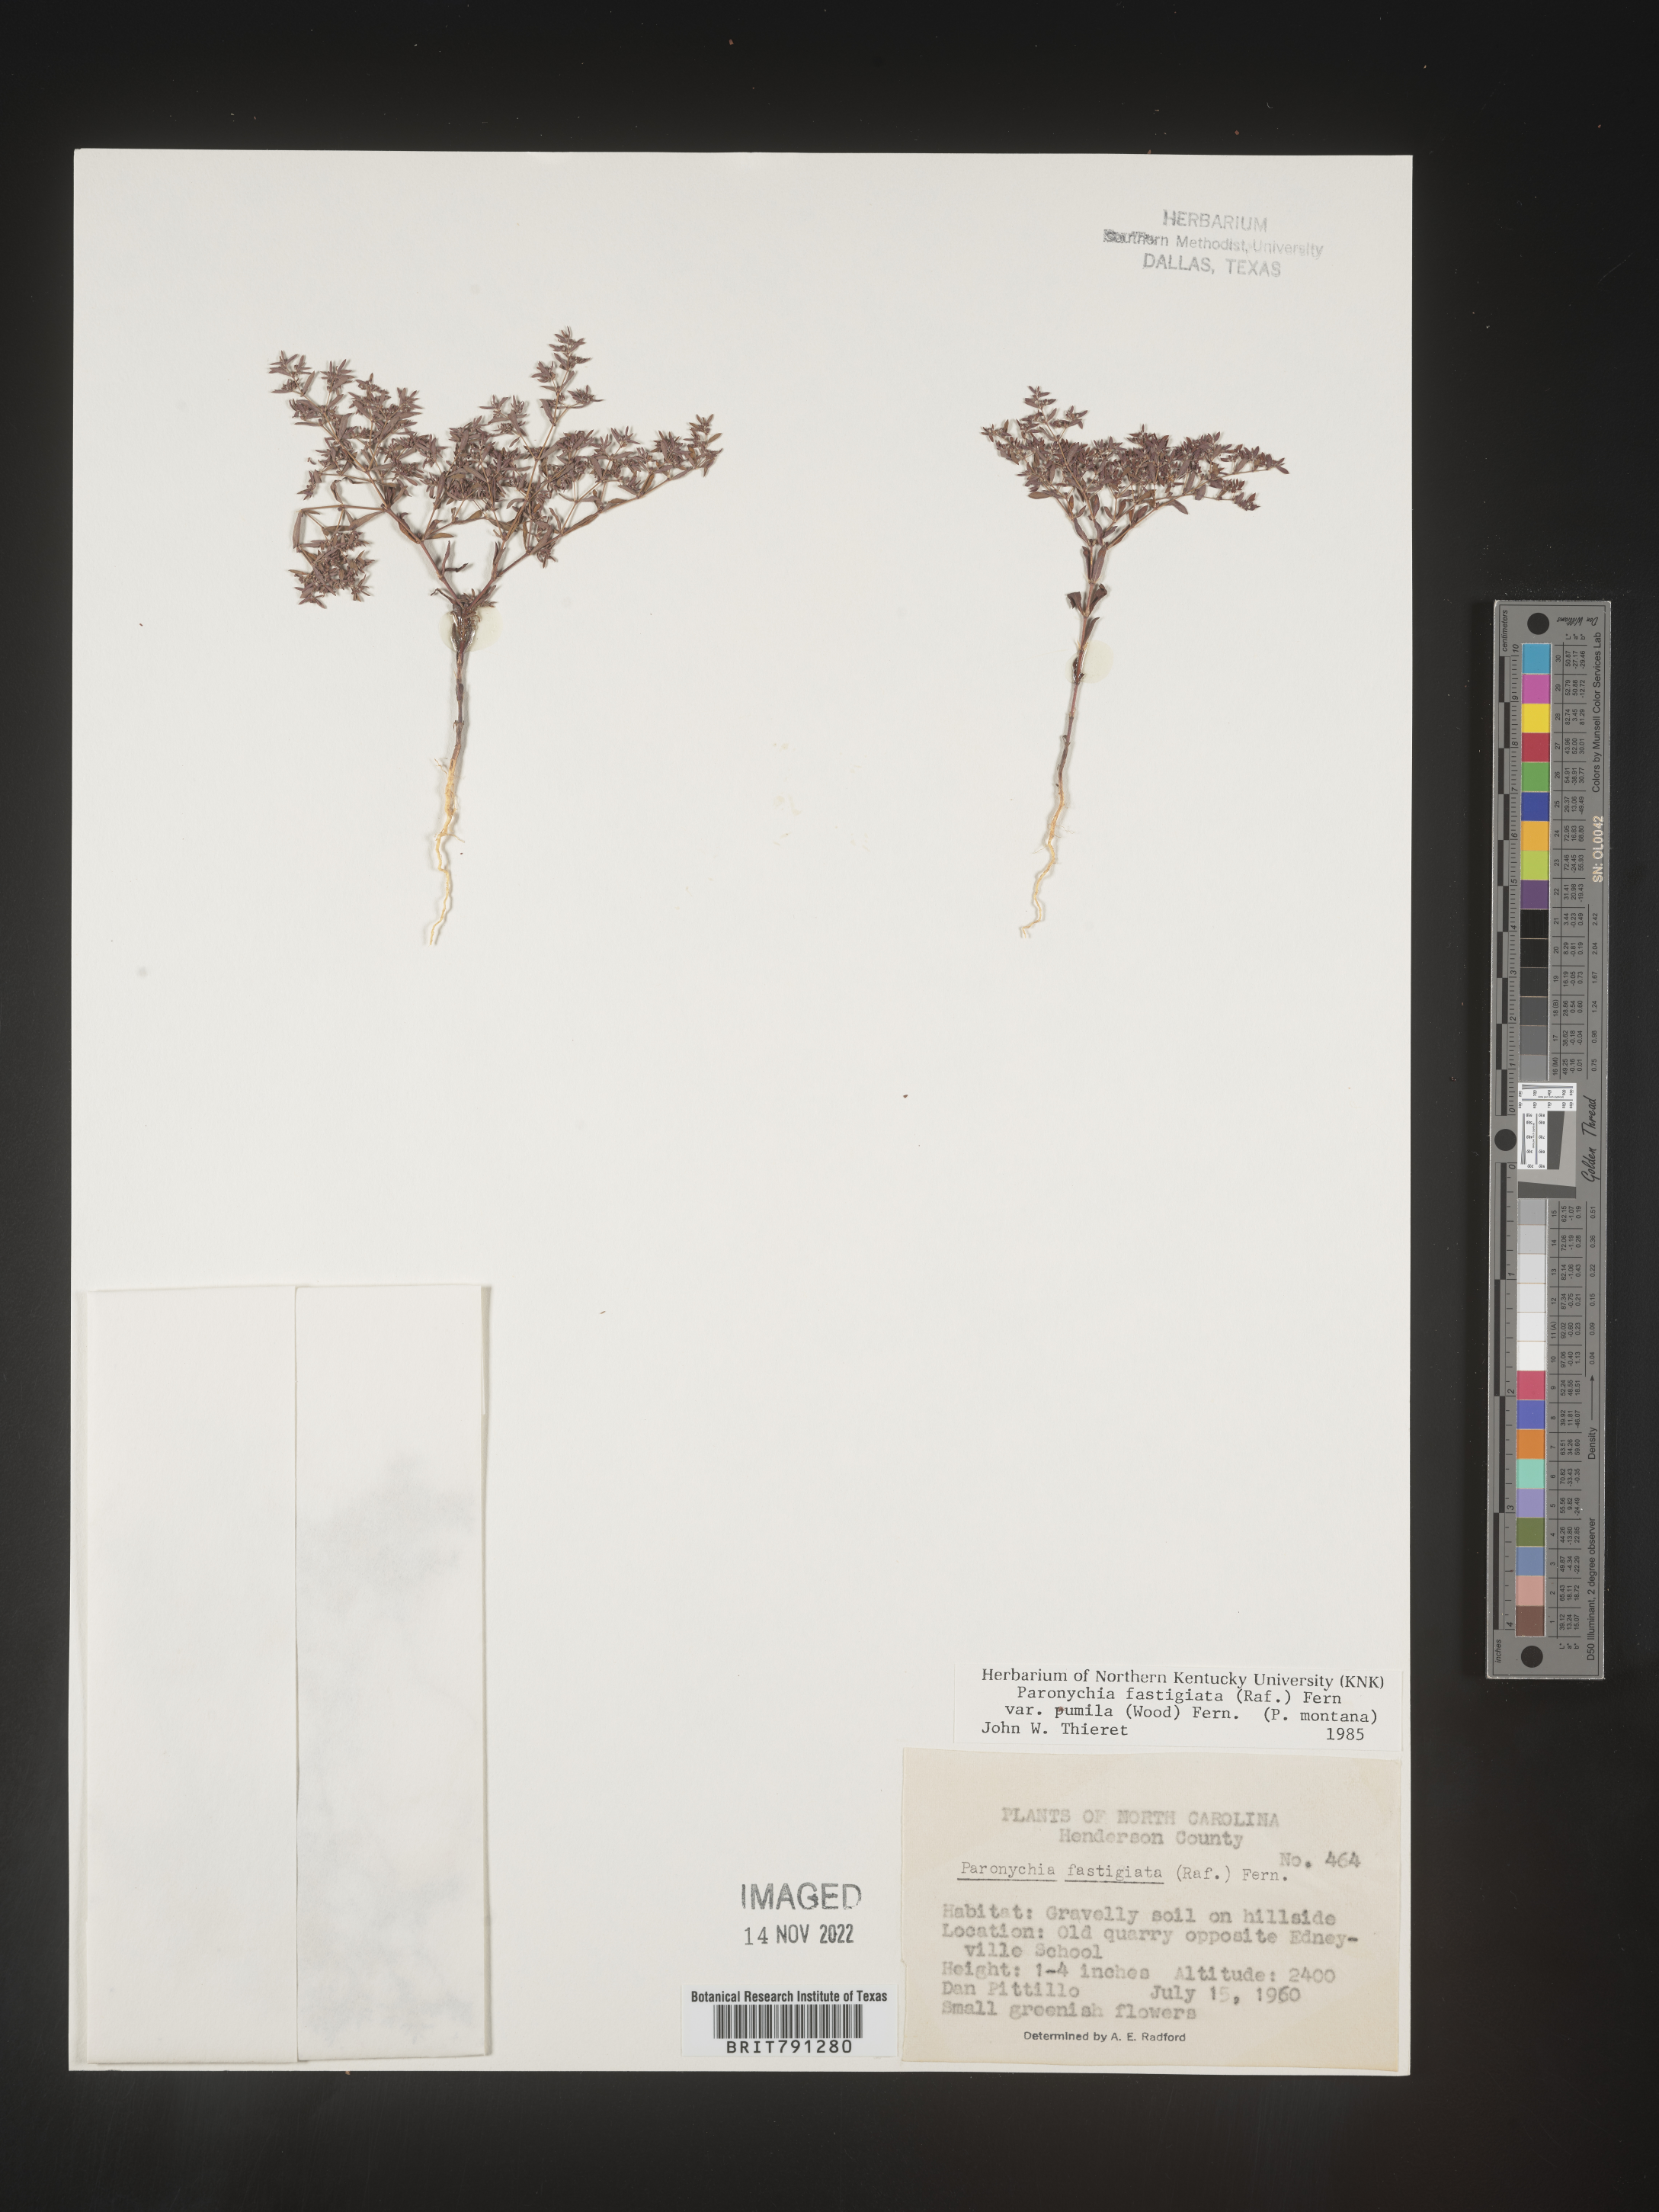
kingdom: Plantae
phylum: Tracheophyta
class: Magnoliopsida
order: Caryophyllales
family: Caryophyllaceae
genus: Paronychia
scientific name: Paronychia fastigiata
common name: Branching forked whitlow-wort
